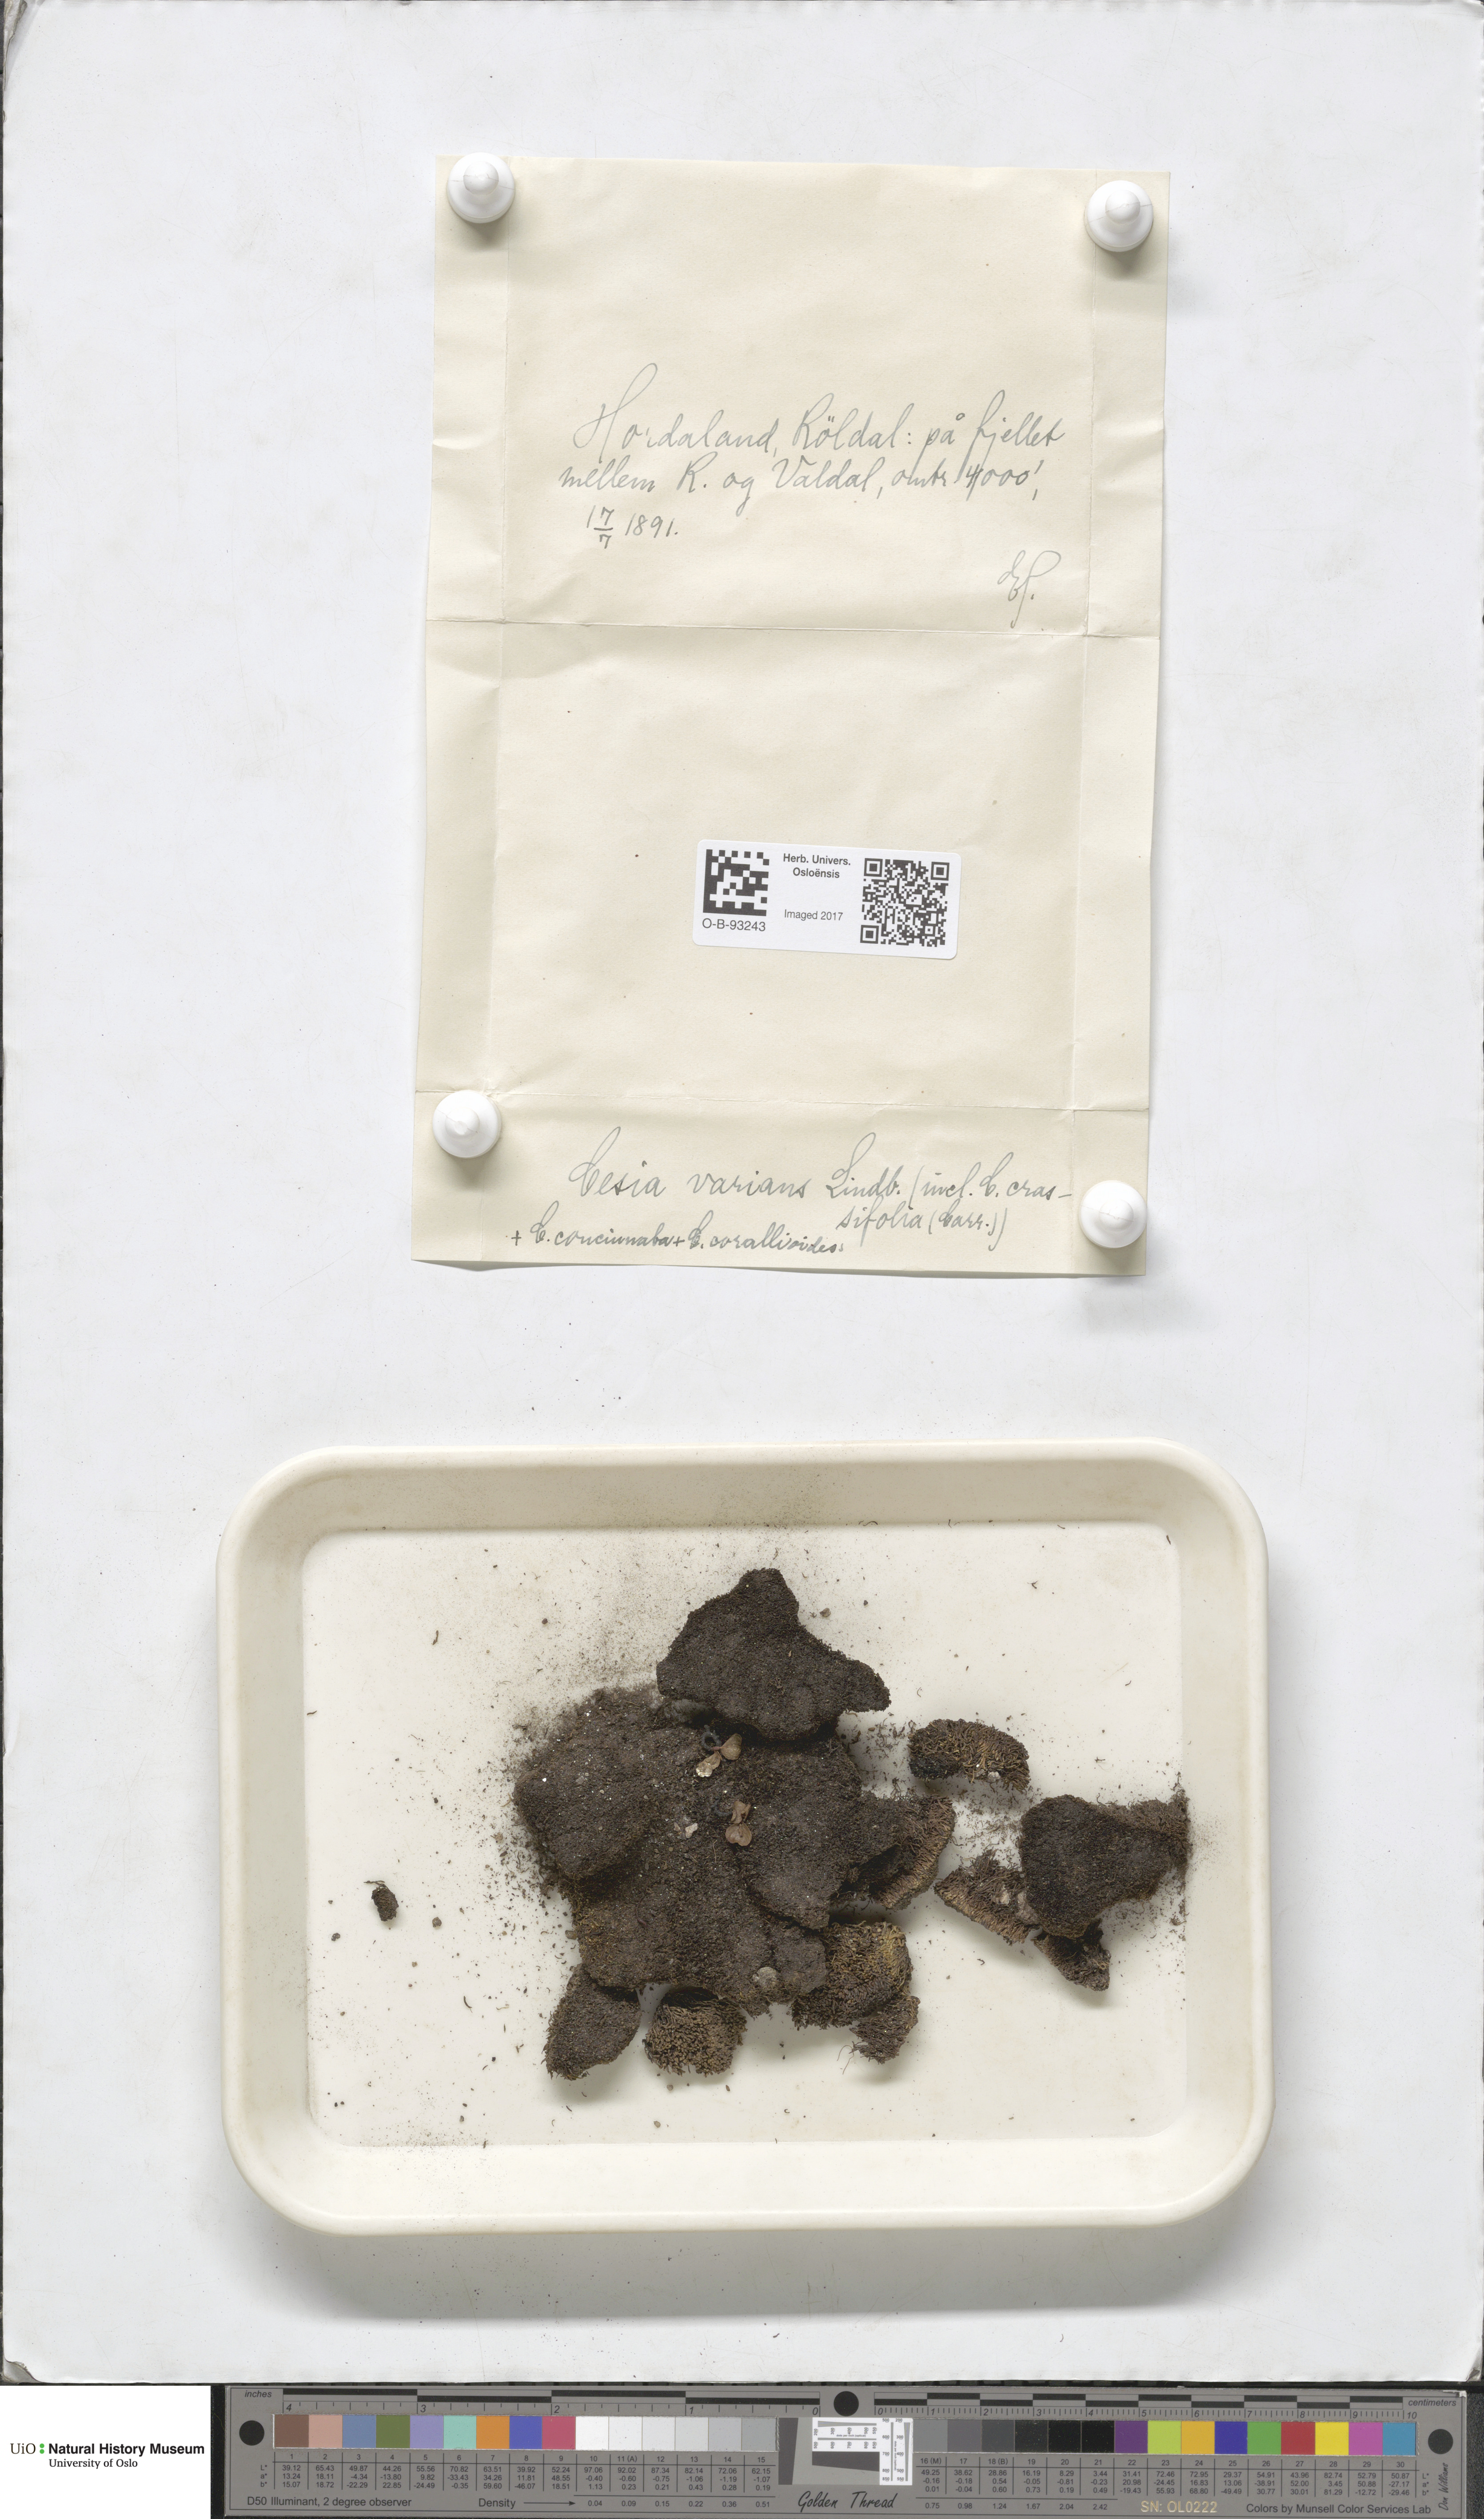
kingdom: Plantae
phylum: Marchantiophyta
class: Jungermanniopsida
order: Jungermanniales
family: Gymnomitriaceae
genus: Gymnomitrion
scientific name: Gymnomitrion brevissimum
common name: Snow rustwort
